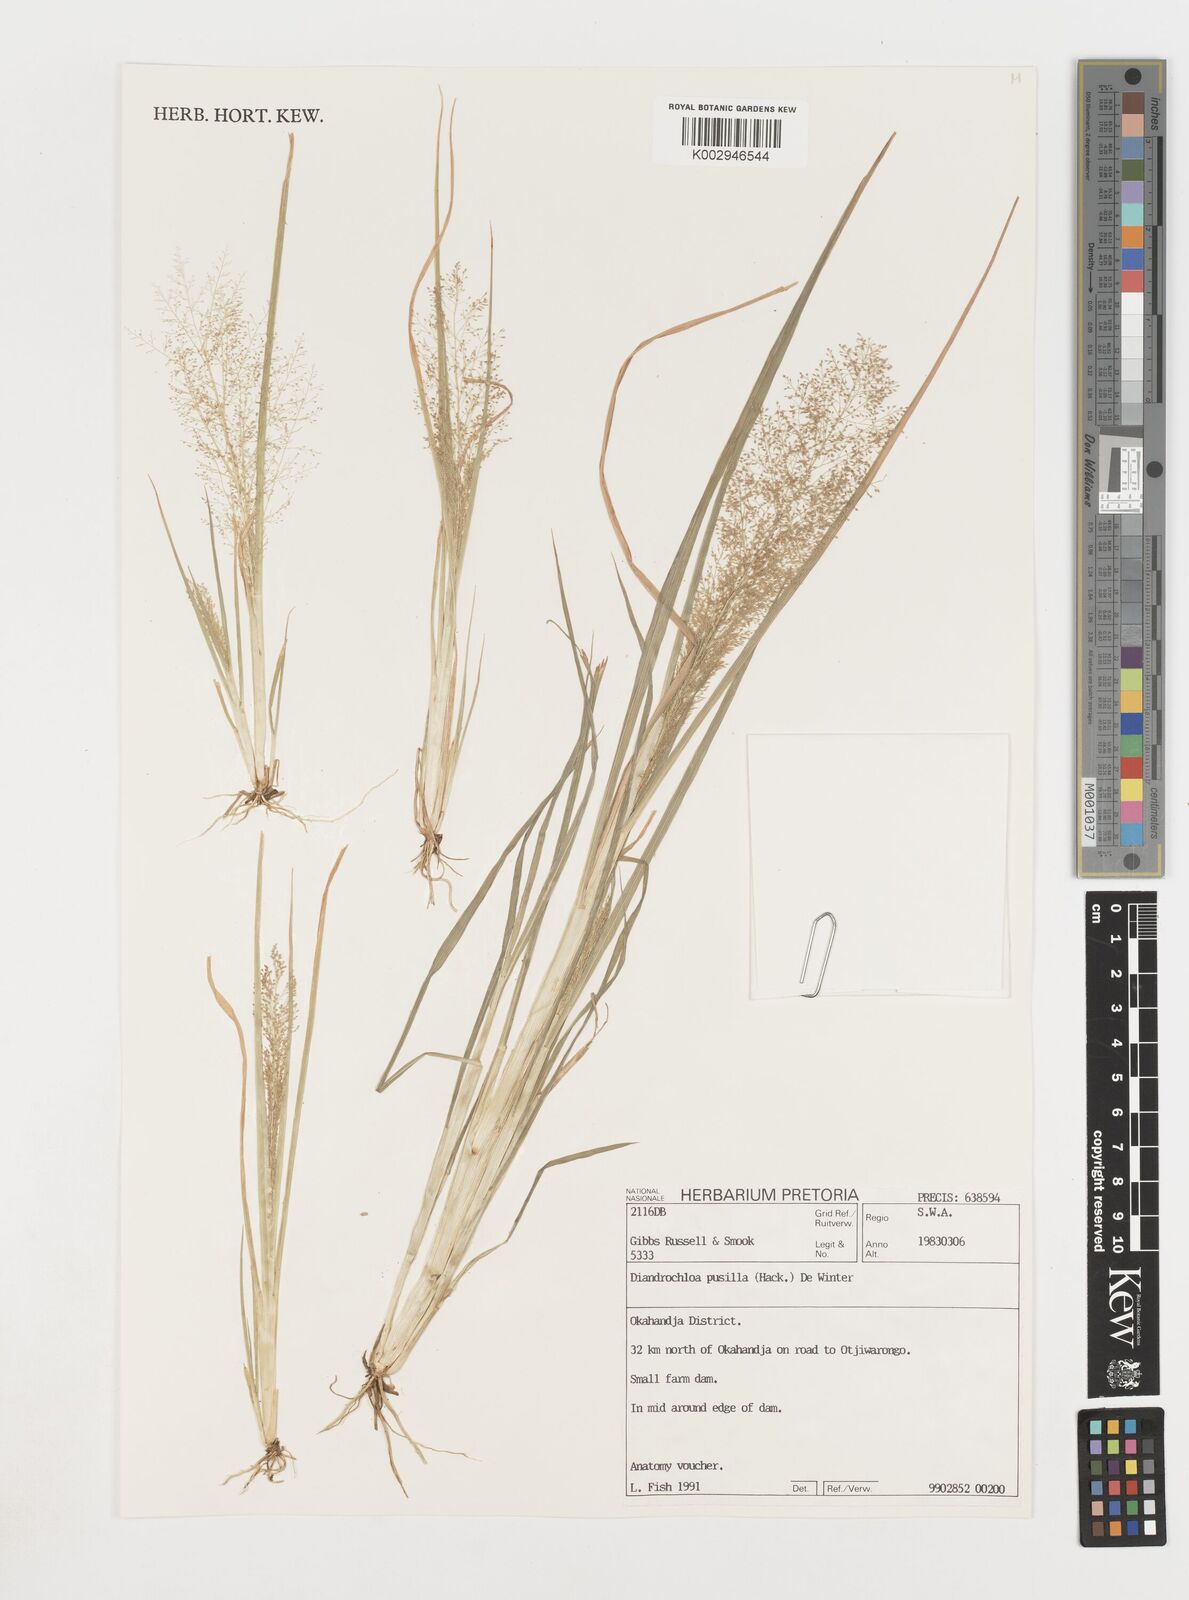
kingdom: Plantae
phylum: Tracheophyta
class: Liliopsida
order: Poales
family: Poaceae
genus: Eragrostis
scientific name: Eragrostis pusilla
